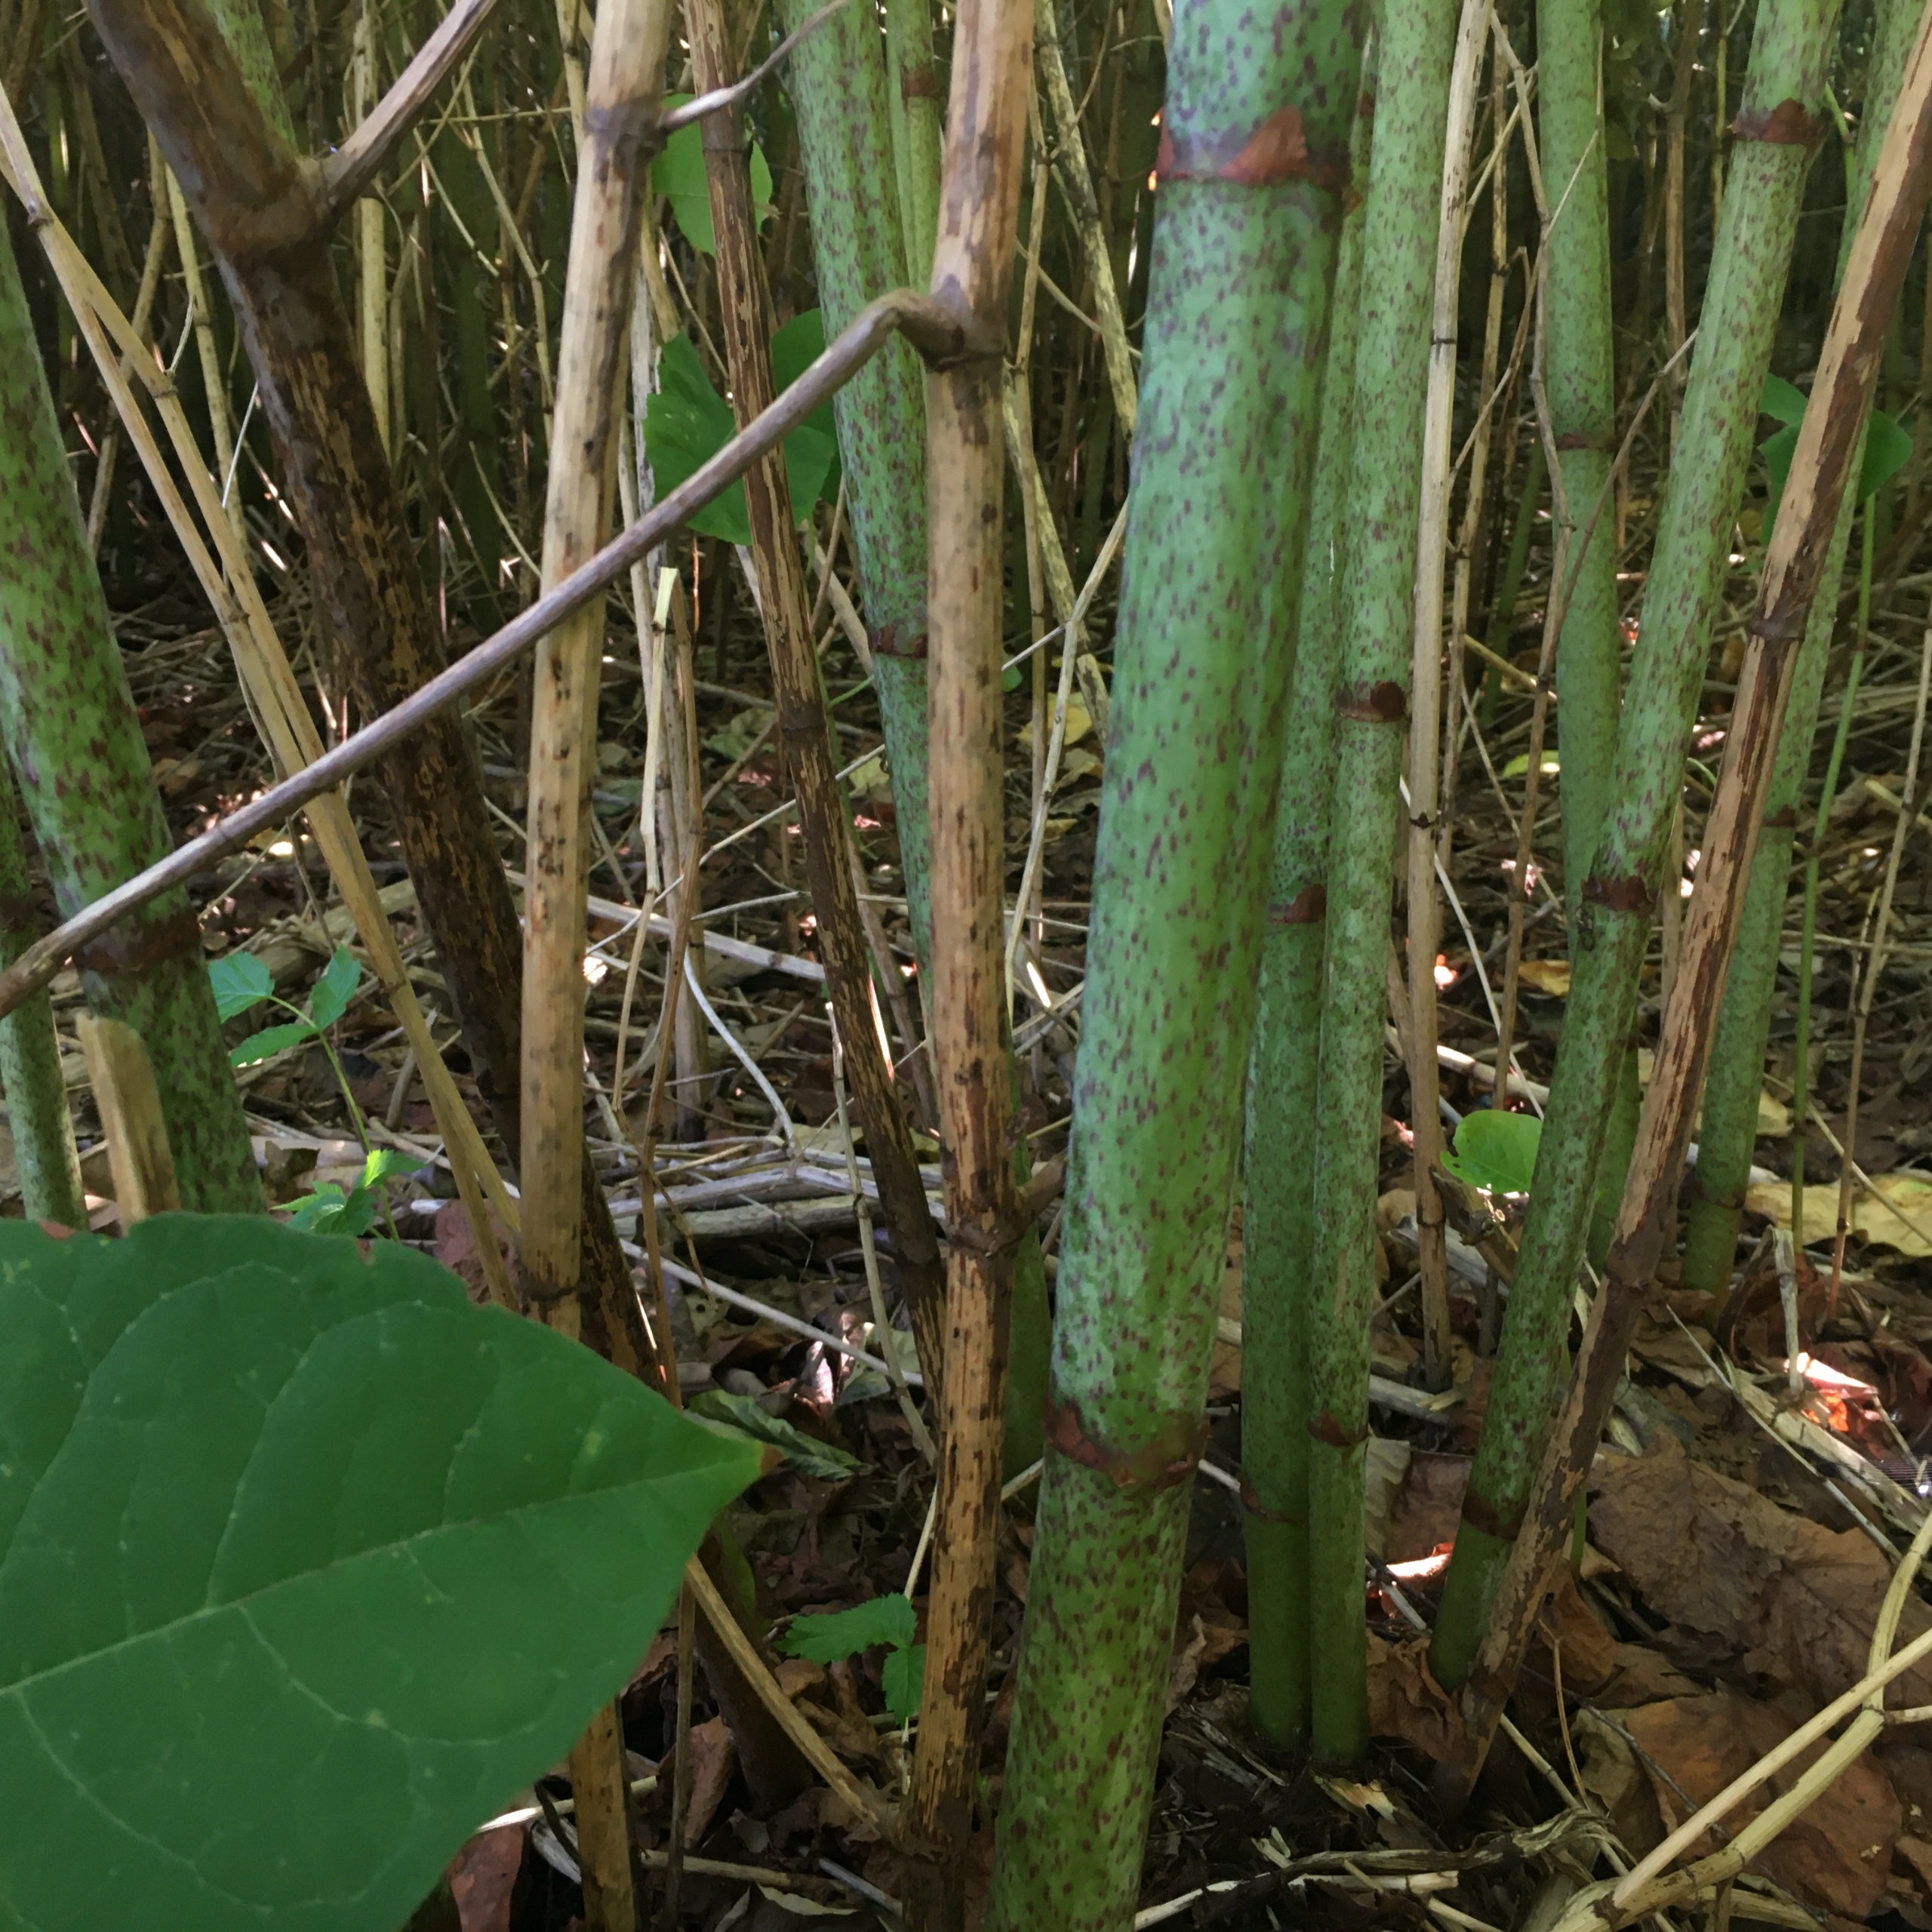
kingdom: Plantae
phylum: Tracheophyta
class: Magnoliopsida
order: Caryophyllales
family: Polygonaceae
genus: Reynoutria
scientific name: Reynoutria japonica
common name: Japan-pileurt
